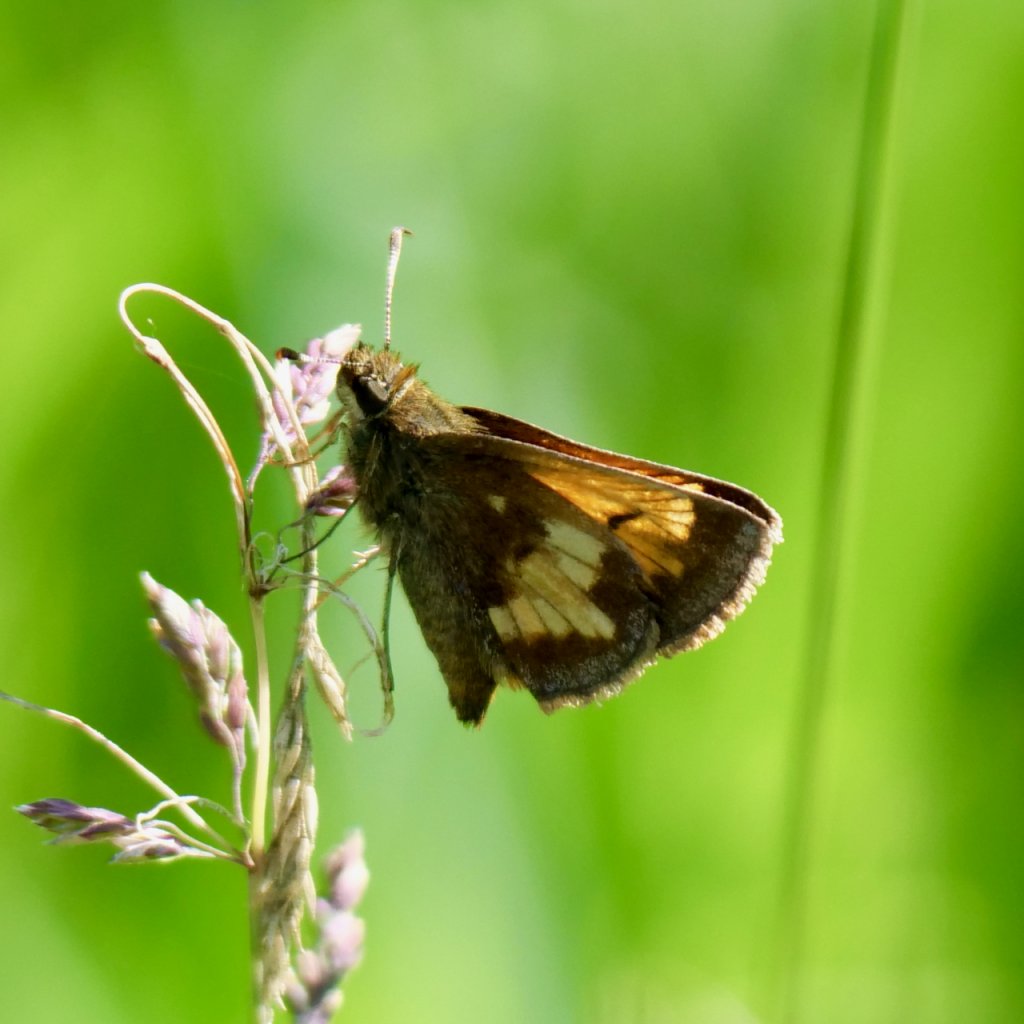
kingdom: Animalia
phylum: Arthropoda
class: Insecta
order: Lepidoptera
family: Hesperiidae
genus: Lon
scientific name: Lon hobomok
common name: Hobomok Skipper
